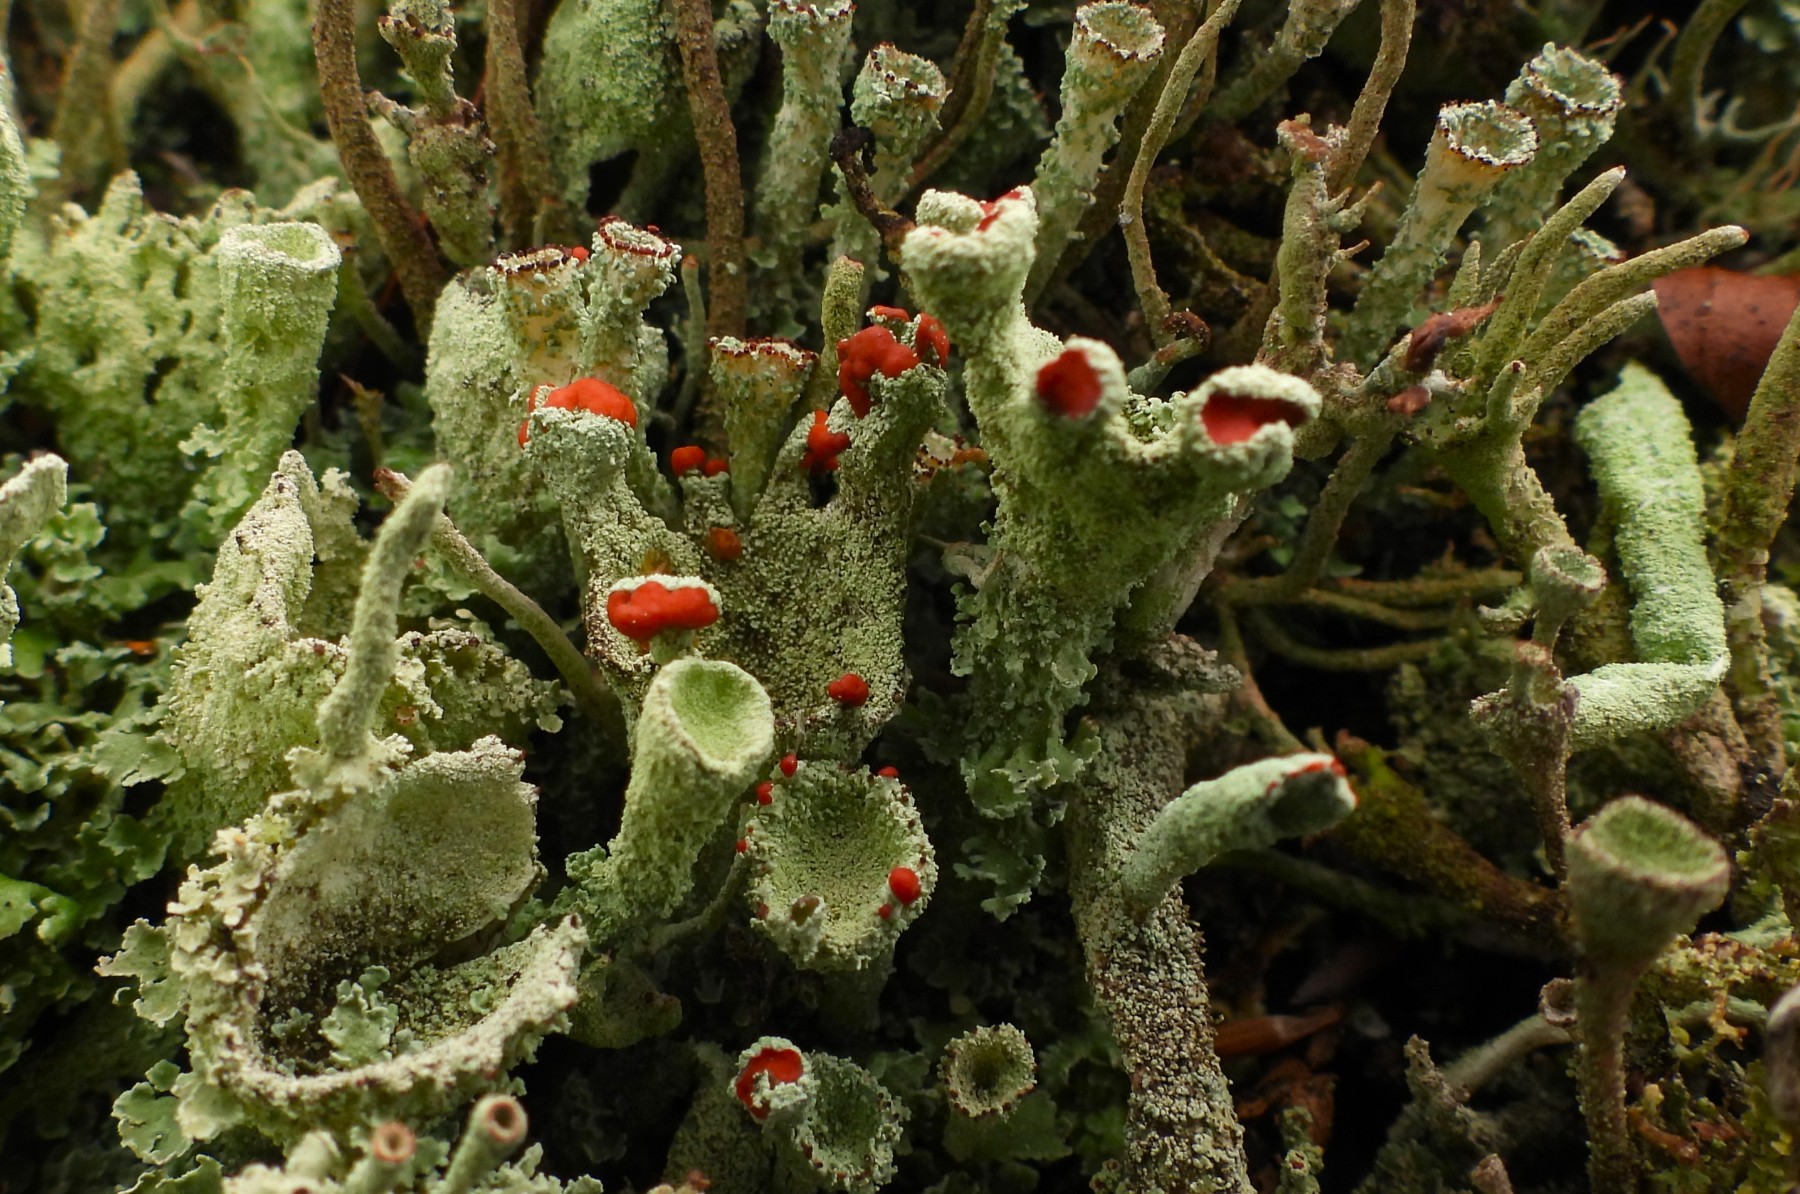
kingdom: Fungi
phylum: Ascomycota
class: Lecanoromycetes
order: Lecanorales
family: Cladoniaceae
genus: Cladonia
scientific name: Cladonia
